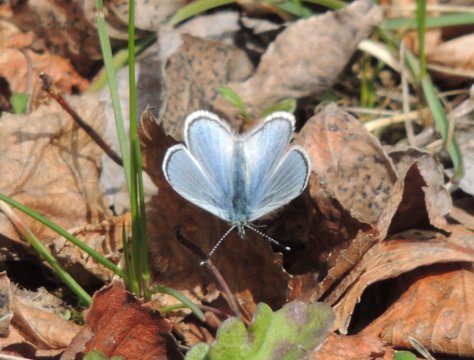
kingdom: Animalia
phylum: Arthropoda
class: Insecta
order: Lepidoptera
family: Lycaenidae
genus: Glaucopsyche
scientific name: Glaucopsyche lygdamus
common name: Silvery Blue
